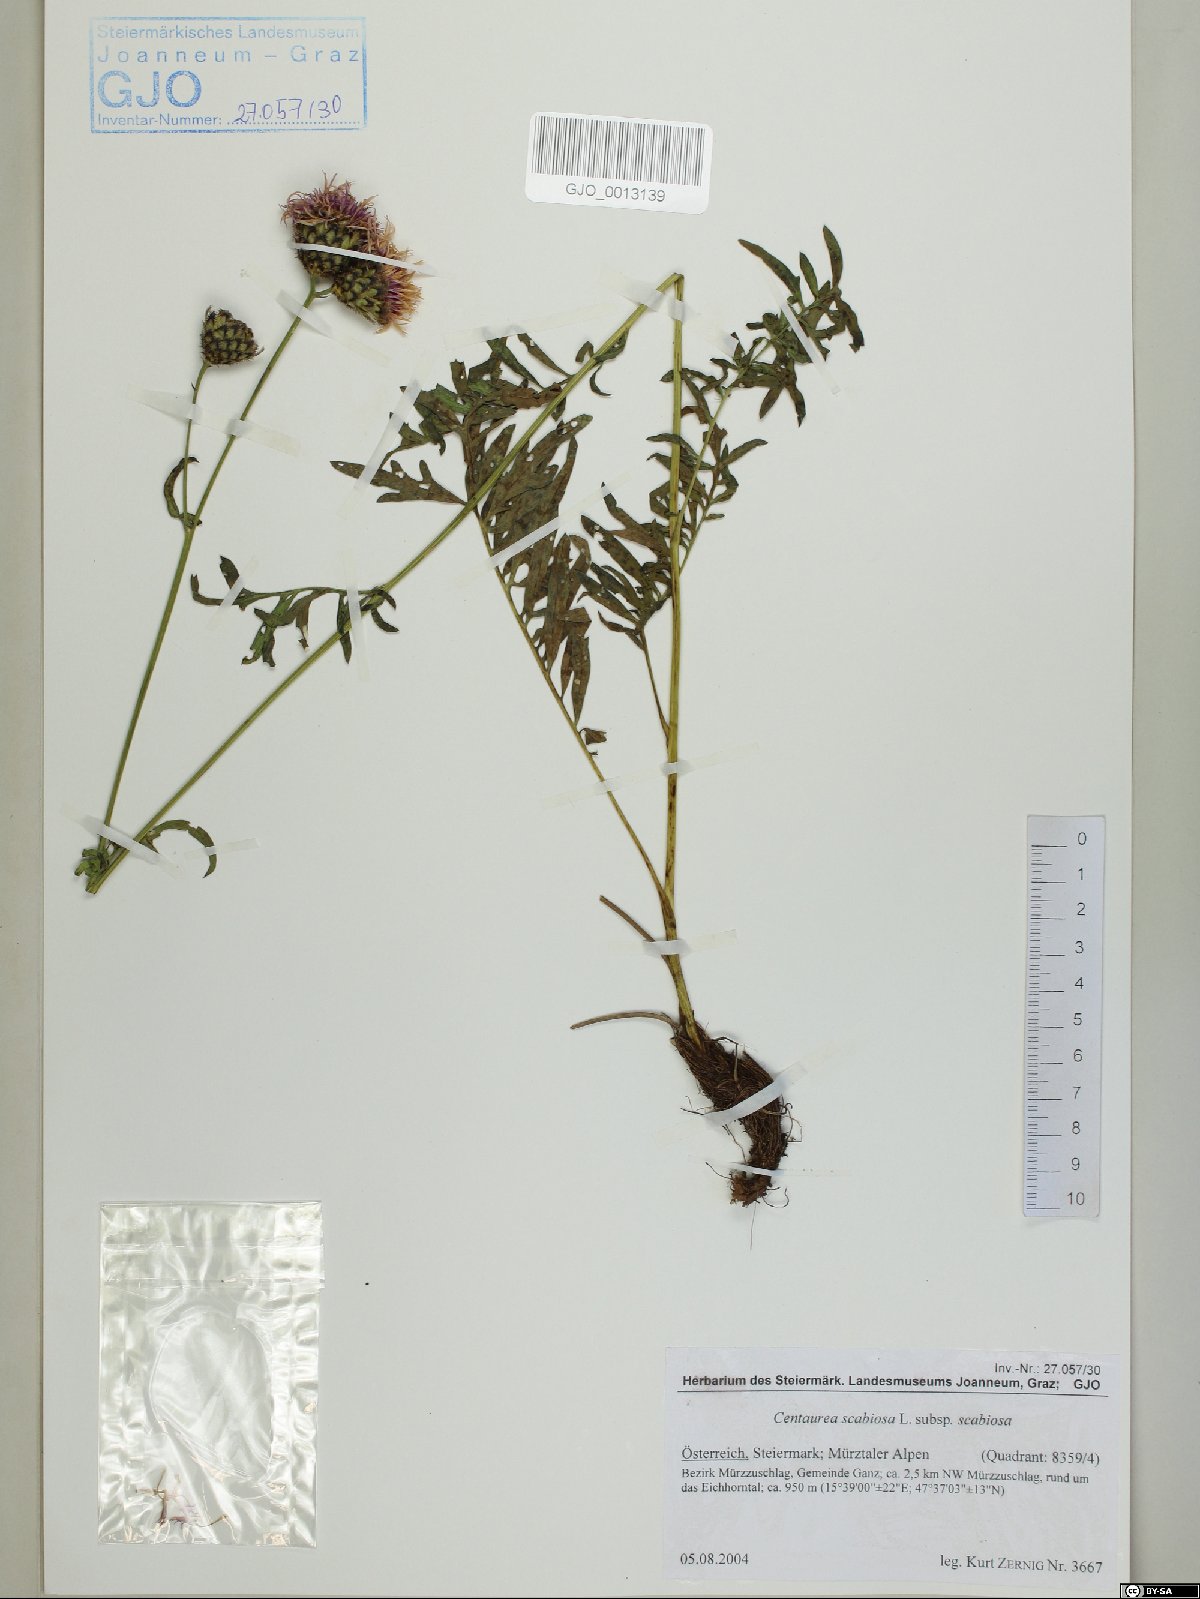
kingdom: Plantae
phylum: Tracheophyta
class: Magnoliopsida
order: Asterales
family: Asteraceae
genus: Centaurea
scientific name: Centaurea scabiosa
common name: Greater knapweed
